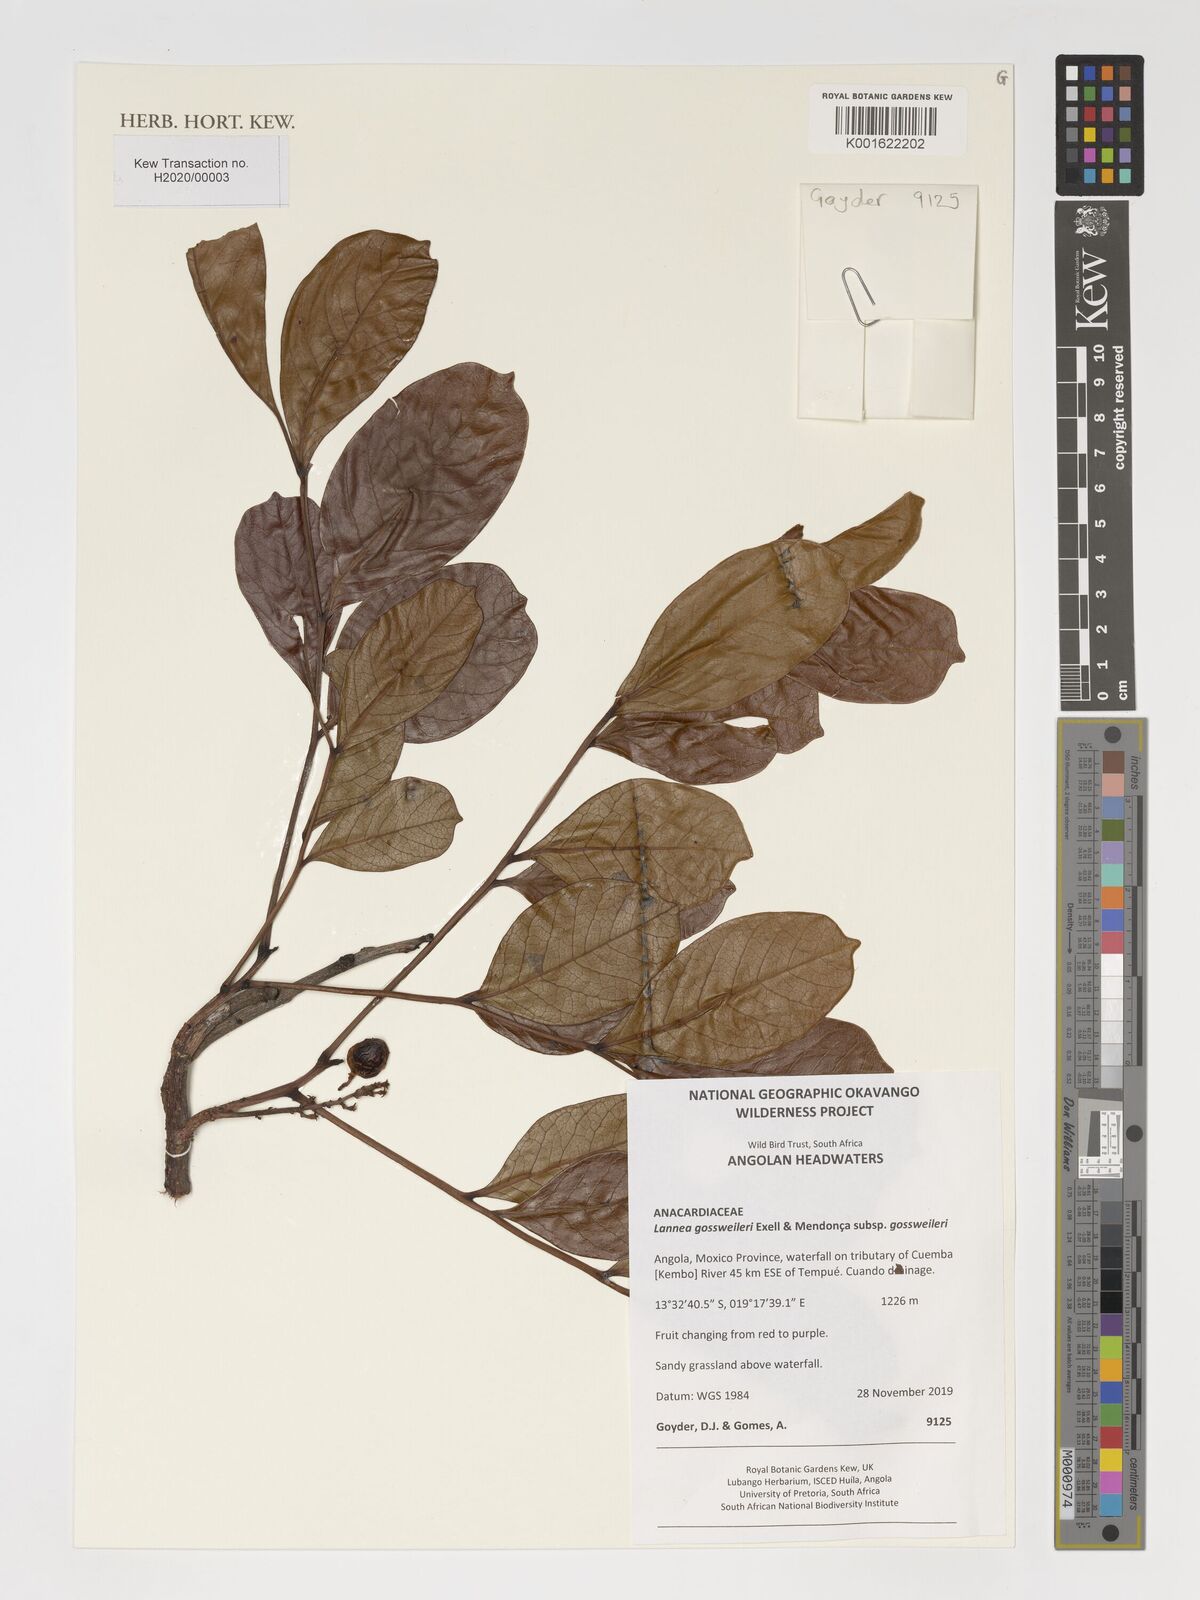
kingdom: Plantae
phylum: Tracheophyta
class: Magnoliopsida
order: Sapindales
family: Anacardiaceae
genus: Lannea
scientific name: Lannea gossweileri
